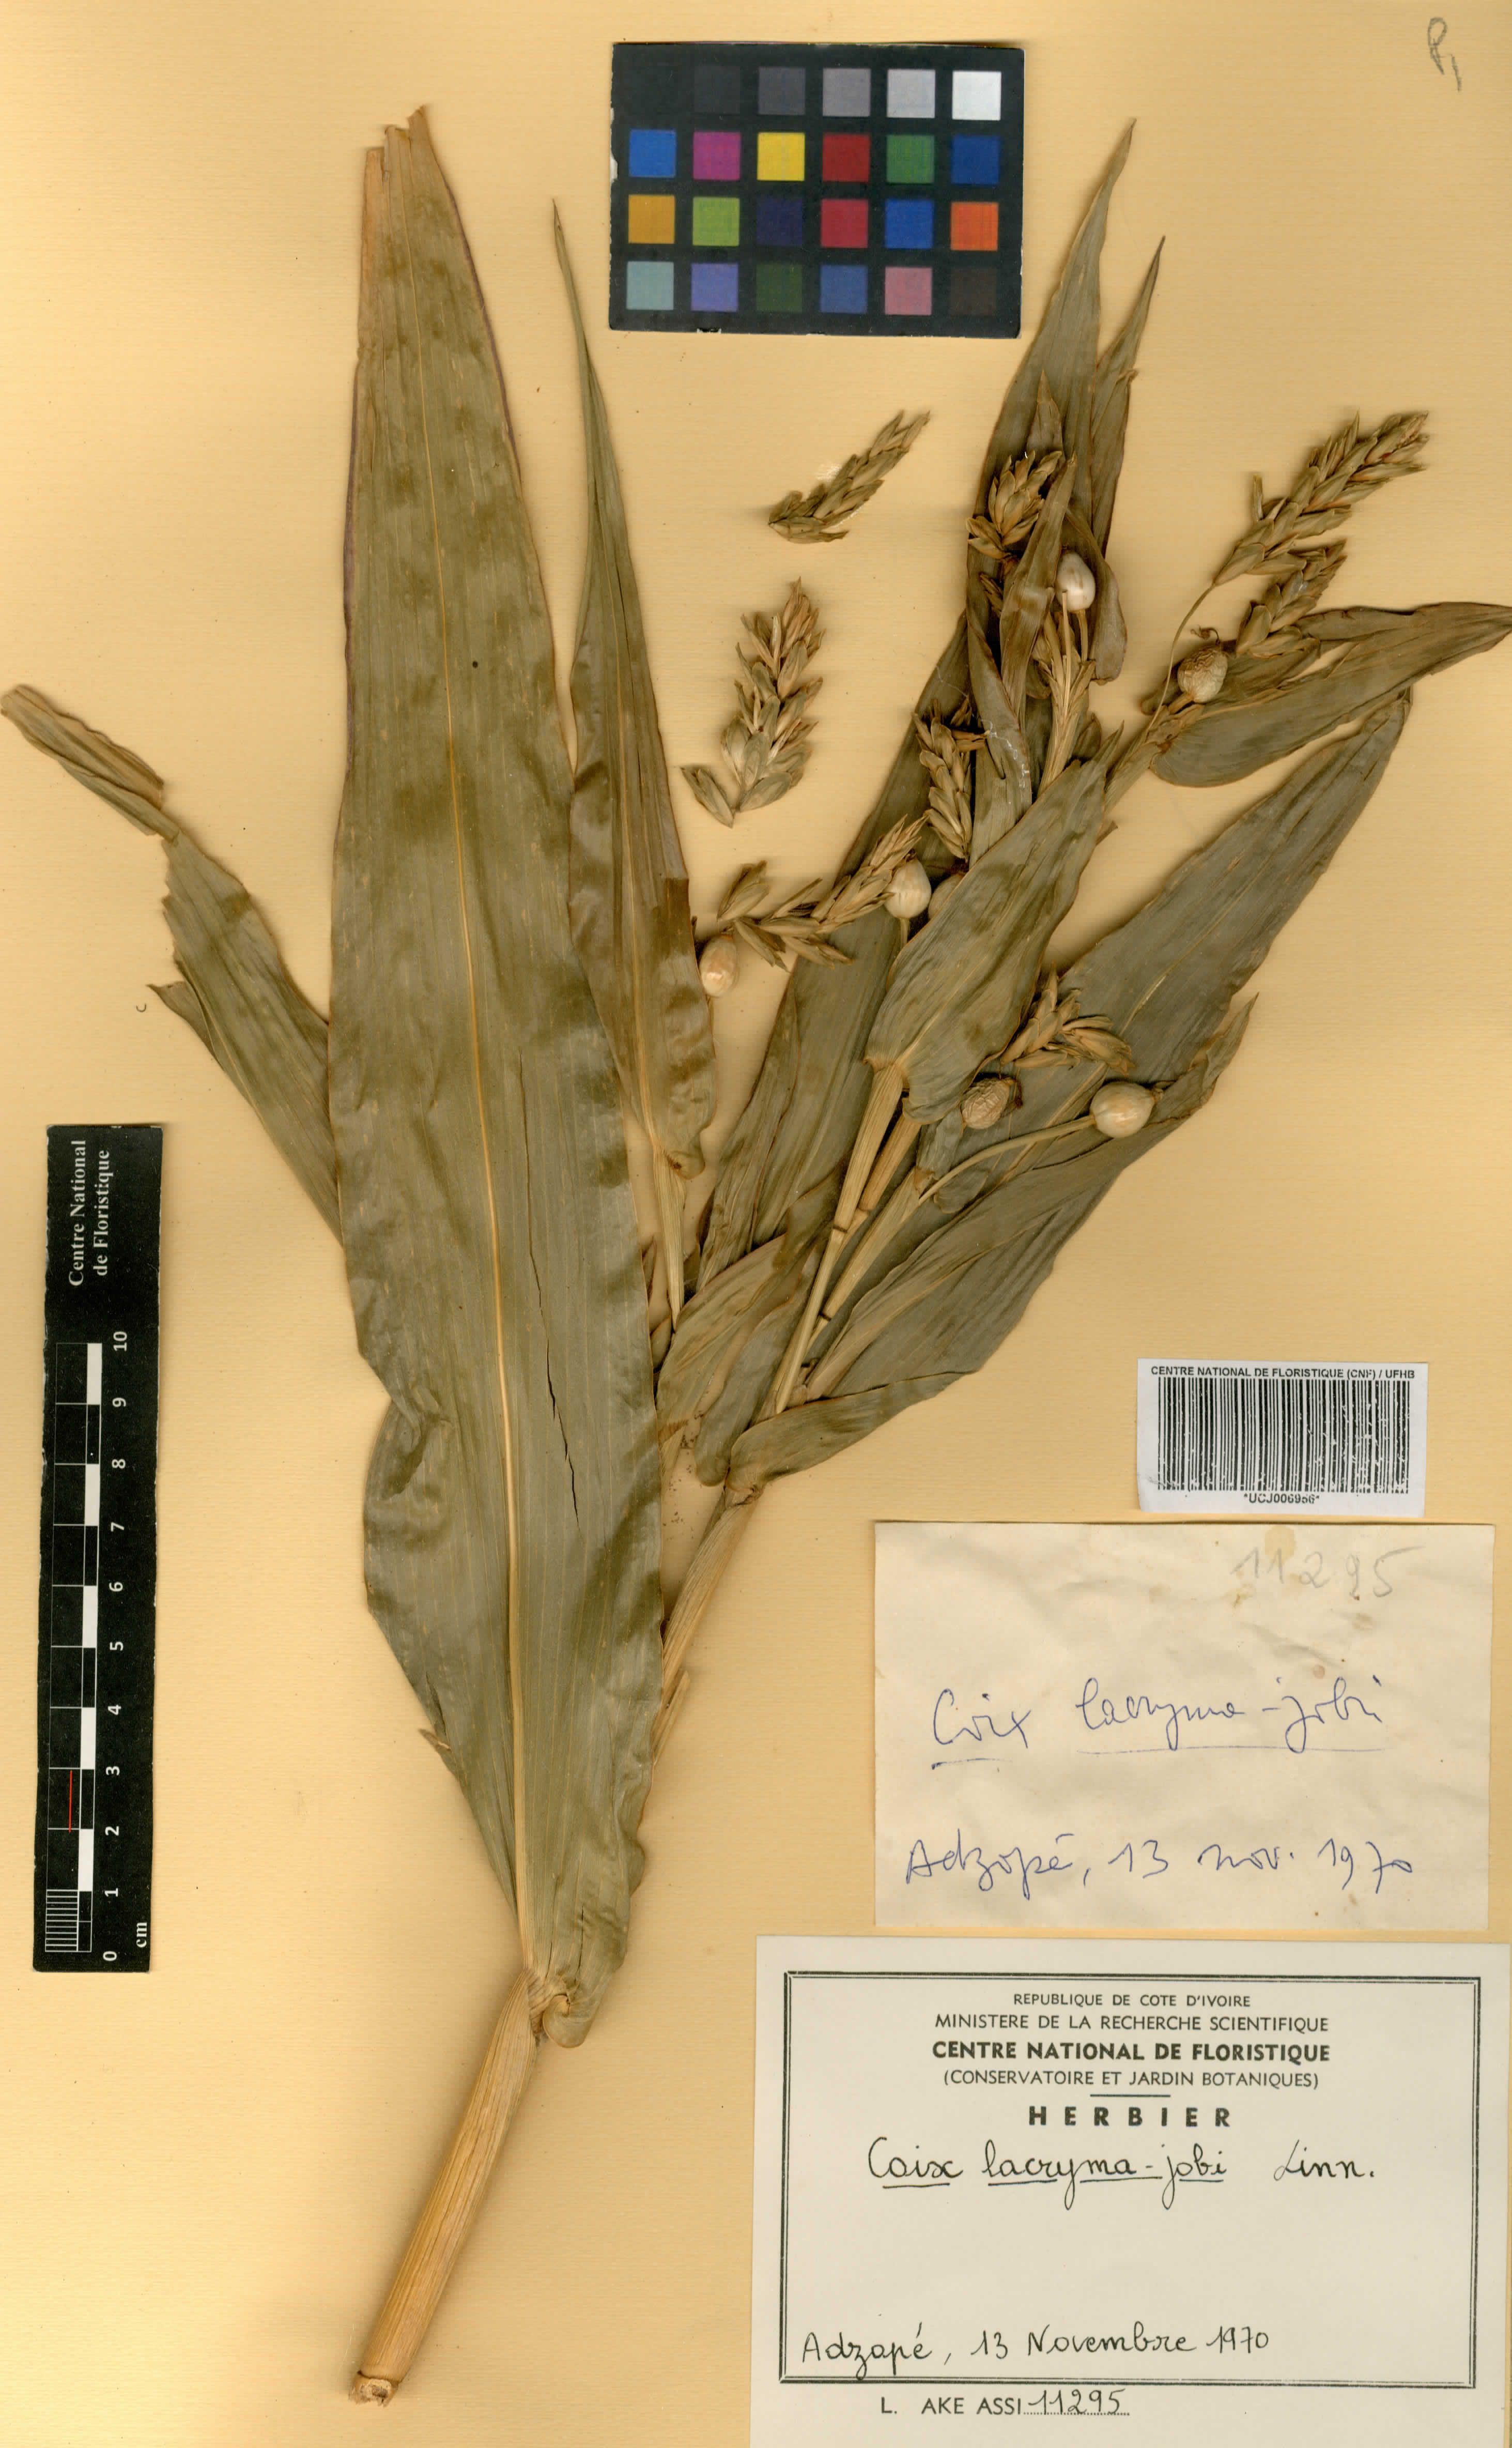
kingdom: Plantae
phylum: Tracheophyta
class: Liliopsida
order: Poales
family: Poaceae
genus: Coix
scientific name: Coix lacryma-jobi
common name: Job's tears
